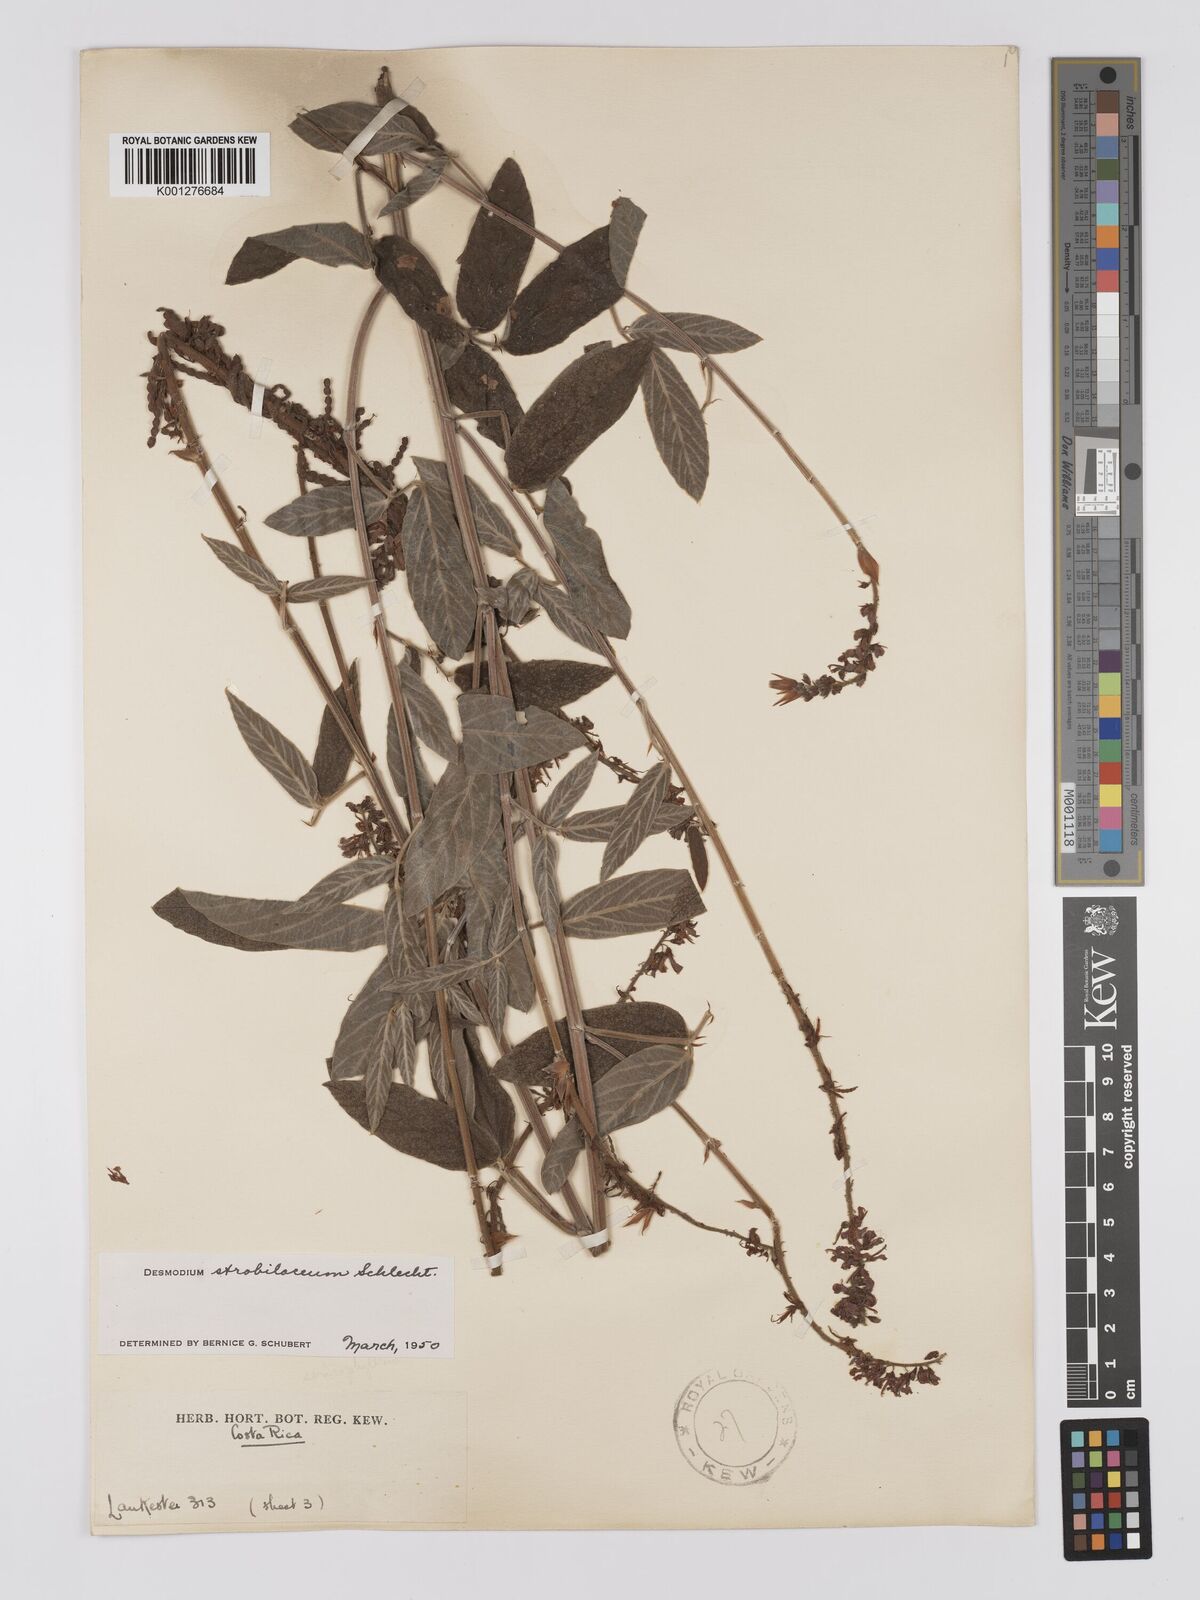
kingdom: Plantae
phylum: Tracheophyta
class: Magnoliopsida
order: Fabales
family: Fabaceae
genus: Desmodium
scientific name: Desmodium sericophyllum
